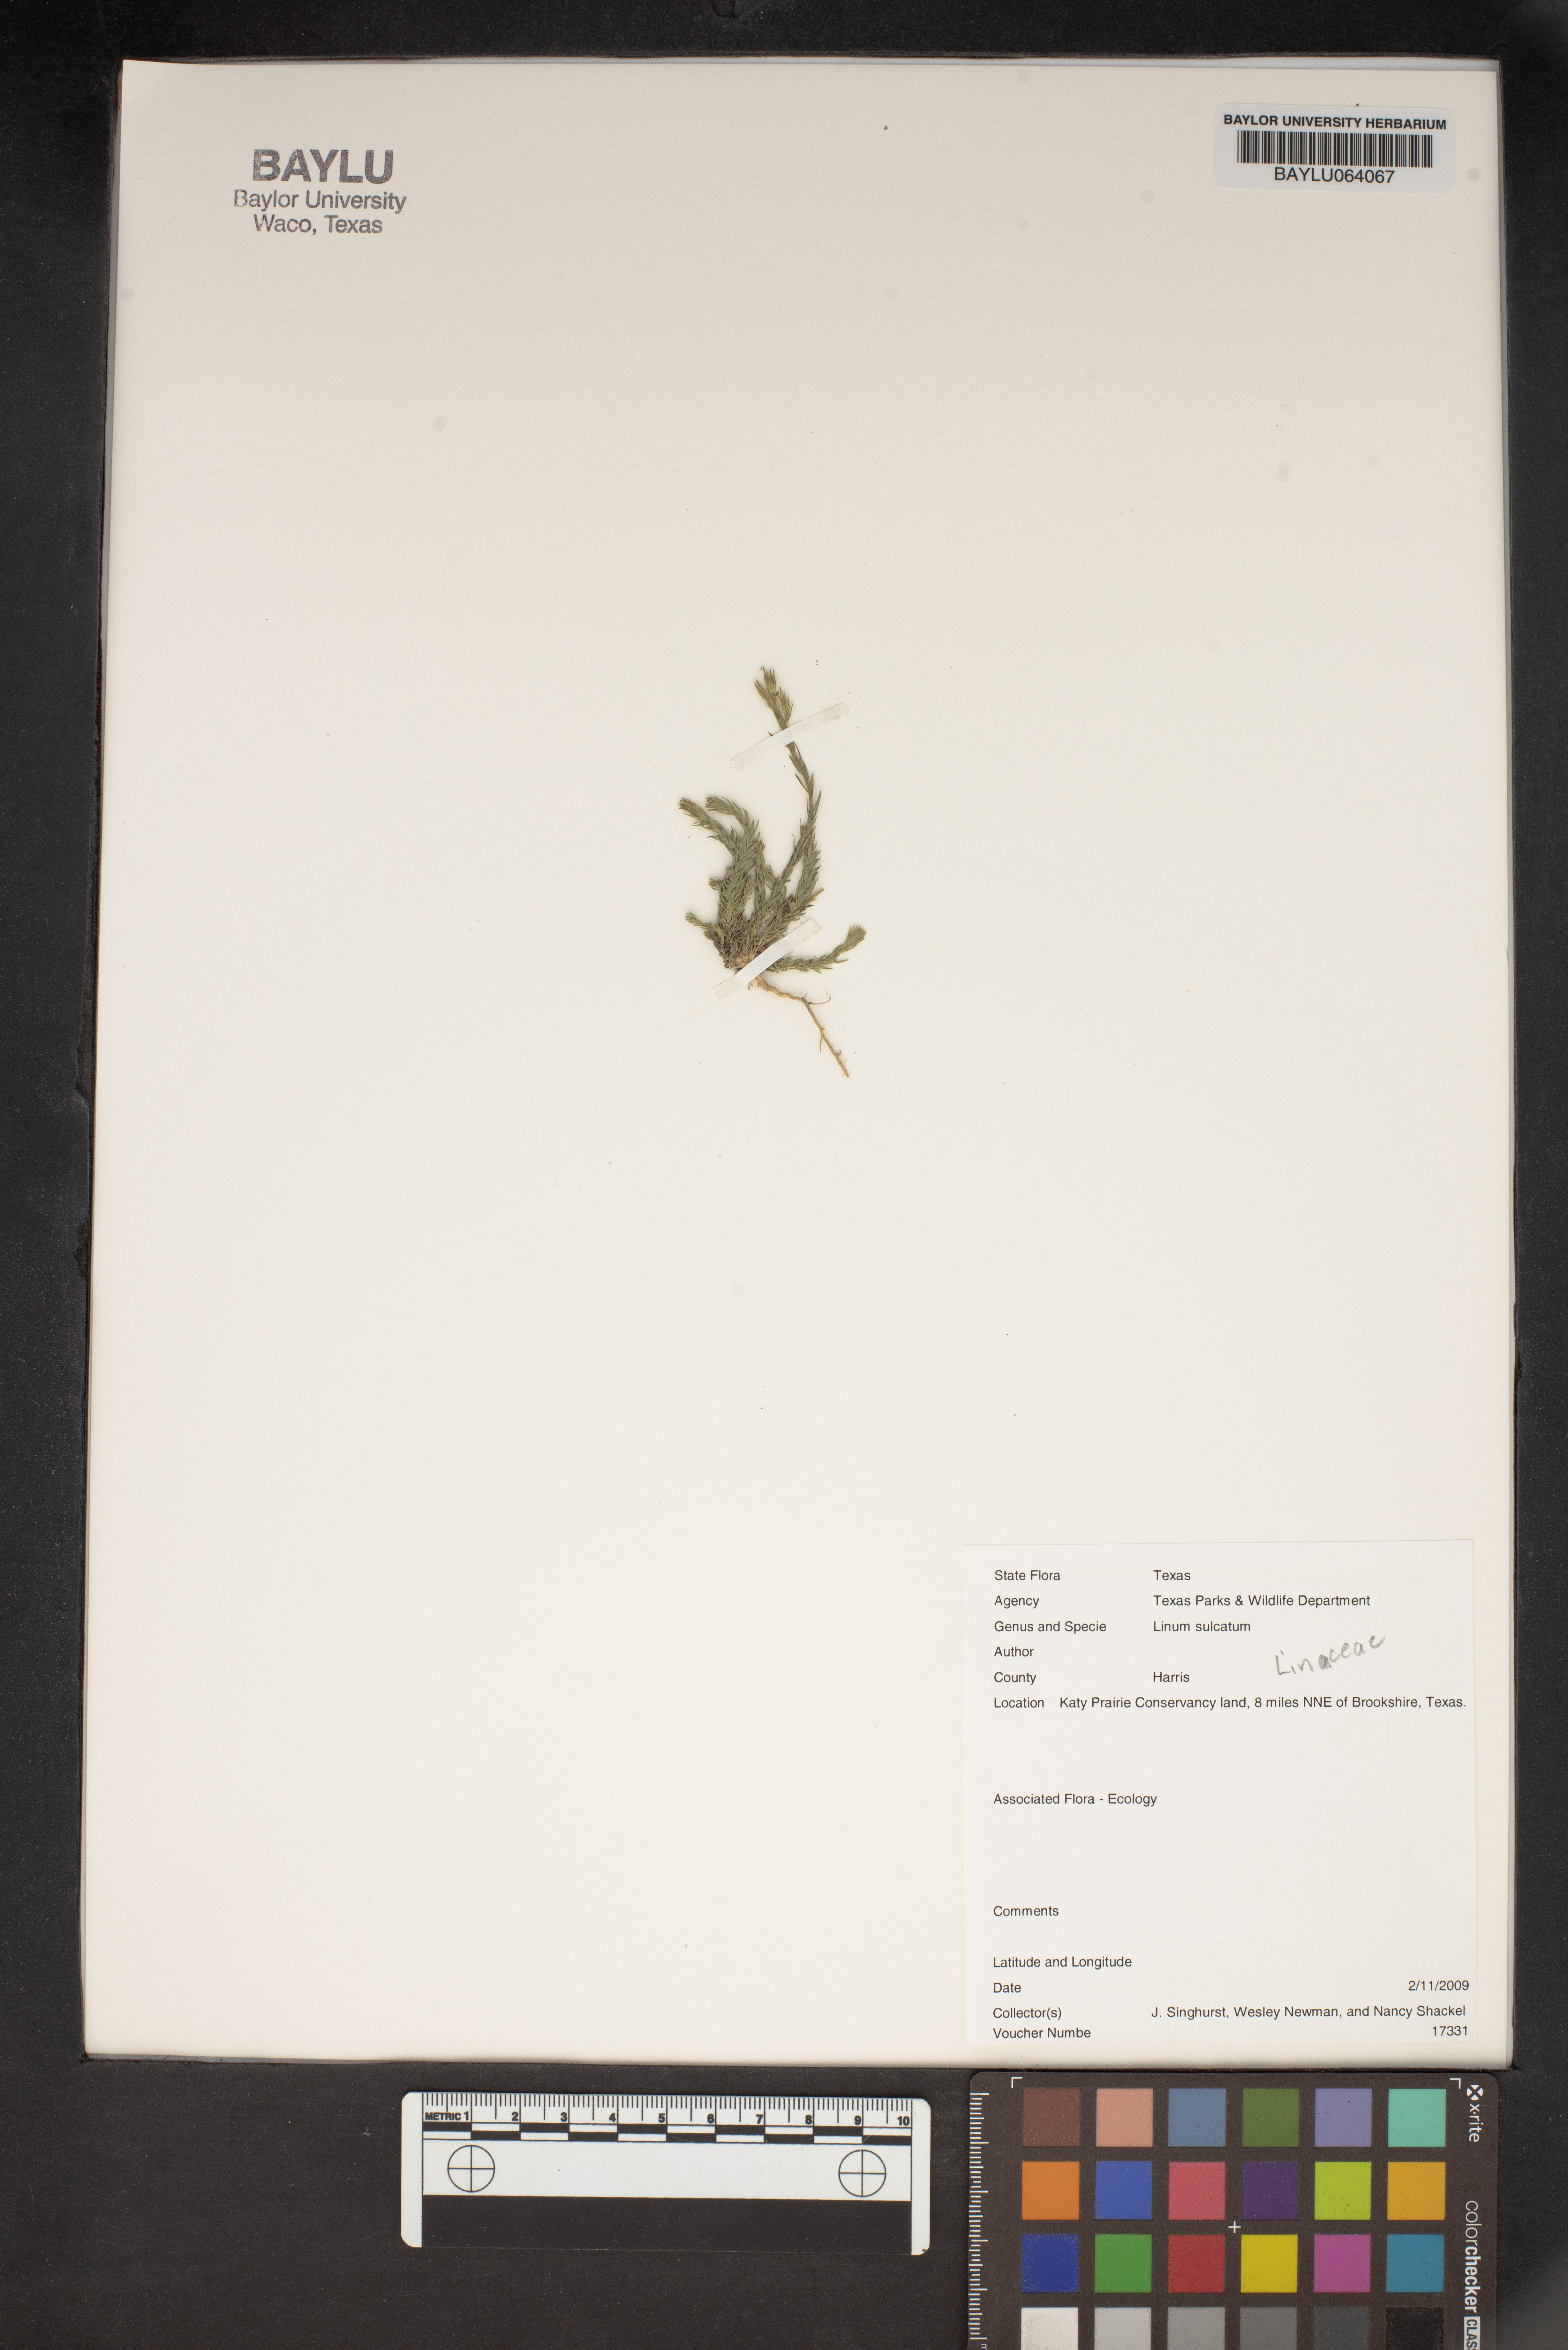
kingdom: Plantae
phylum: Tracheophyta
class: Magnoliopsida
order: Malpighiales
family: Linaceae
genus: Linum
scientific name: Linum sulcatum
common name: Grooved flax
